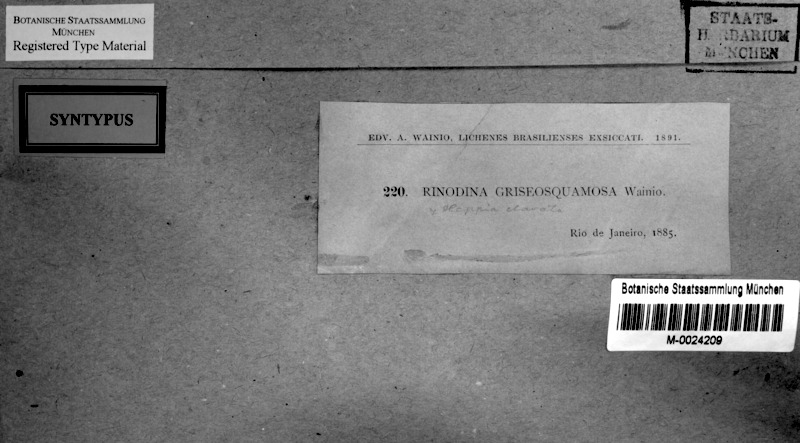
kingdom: Fungi
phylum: Ascomycota
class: Lecanoromycetes
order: Caliciales
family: Physciaceae
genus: Rinodina
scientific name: Rinodina
